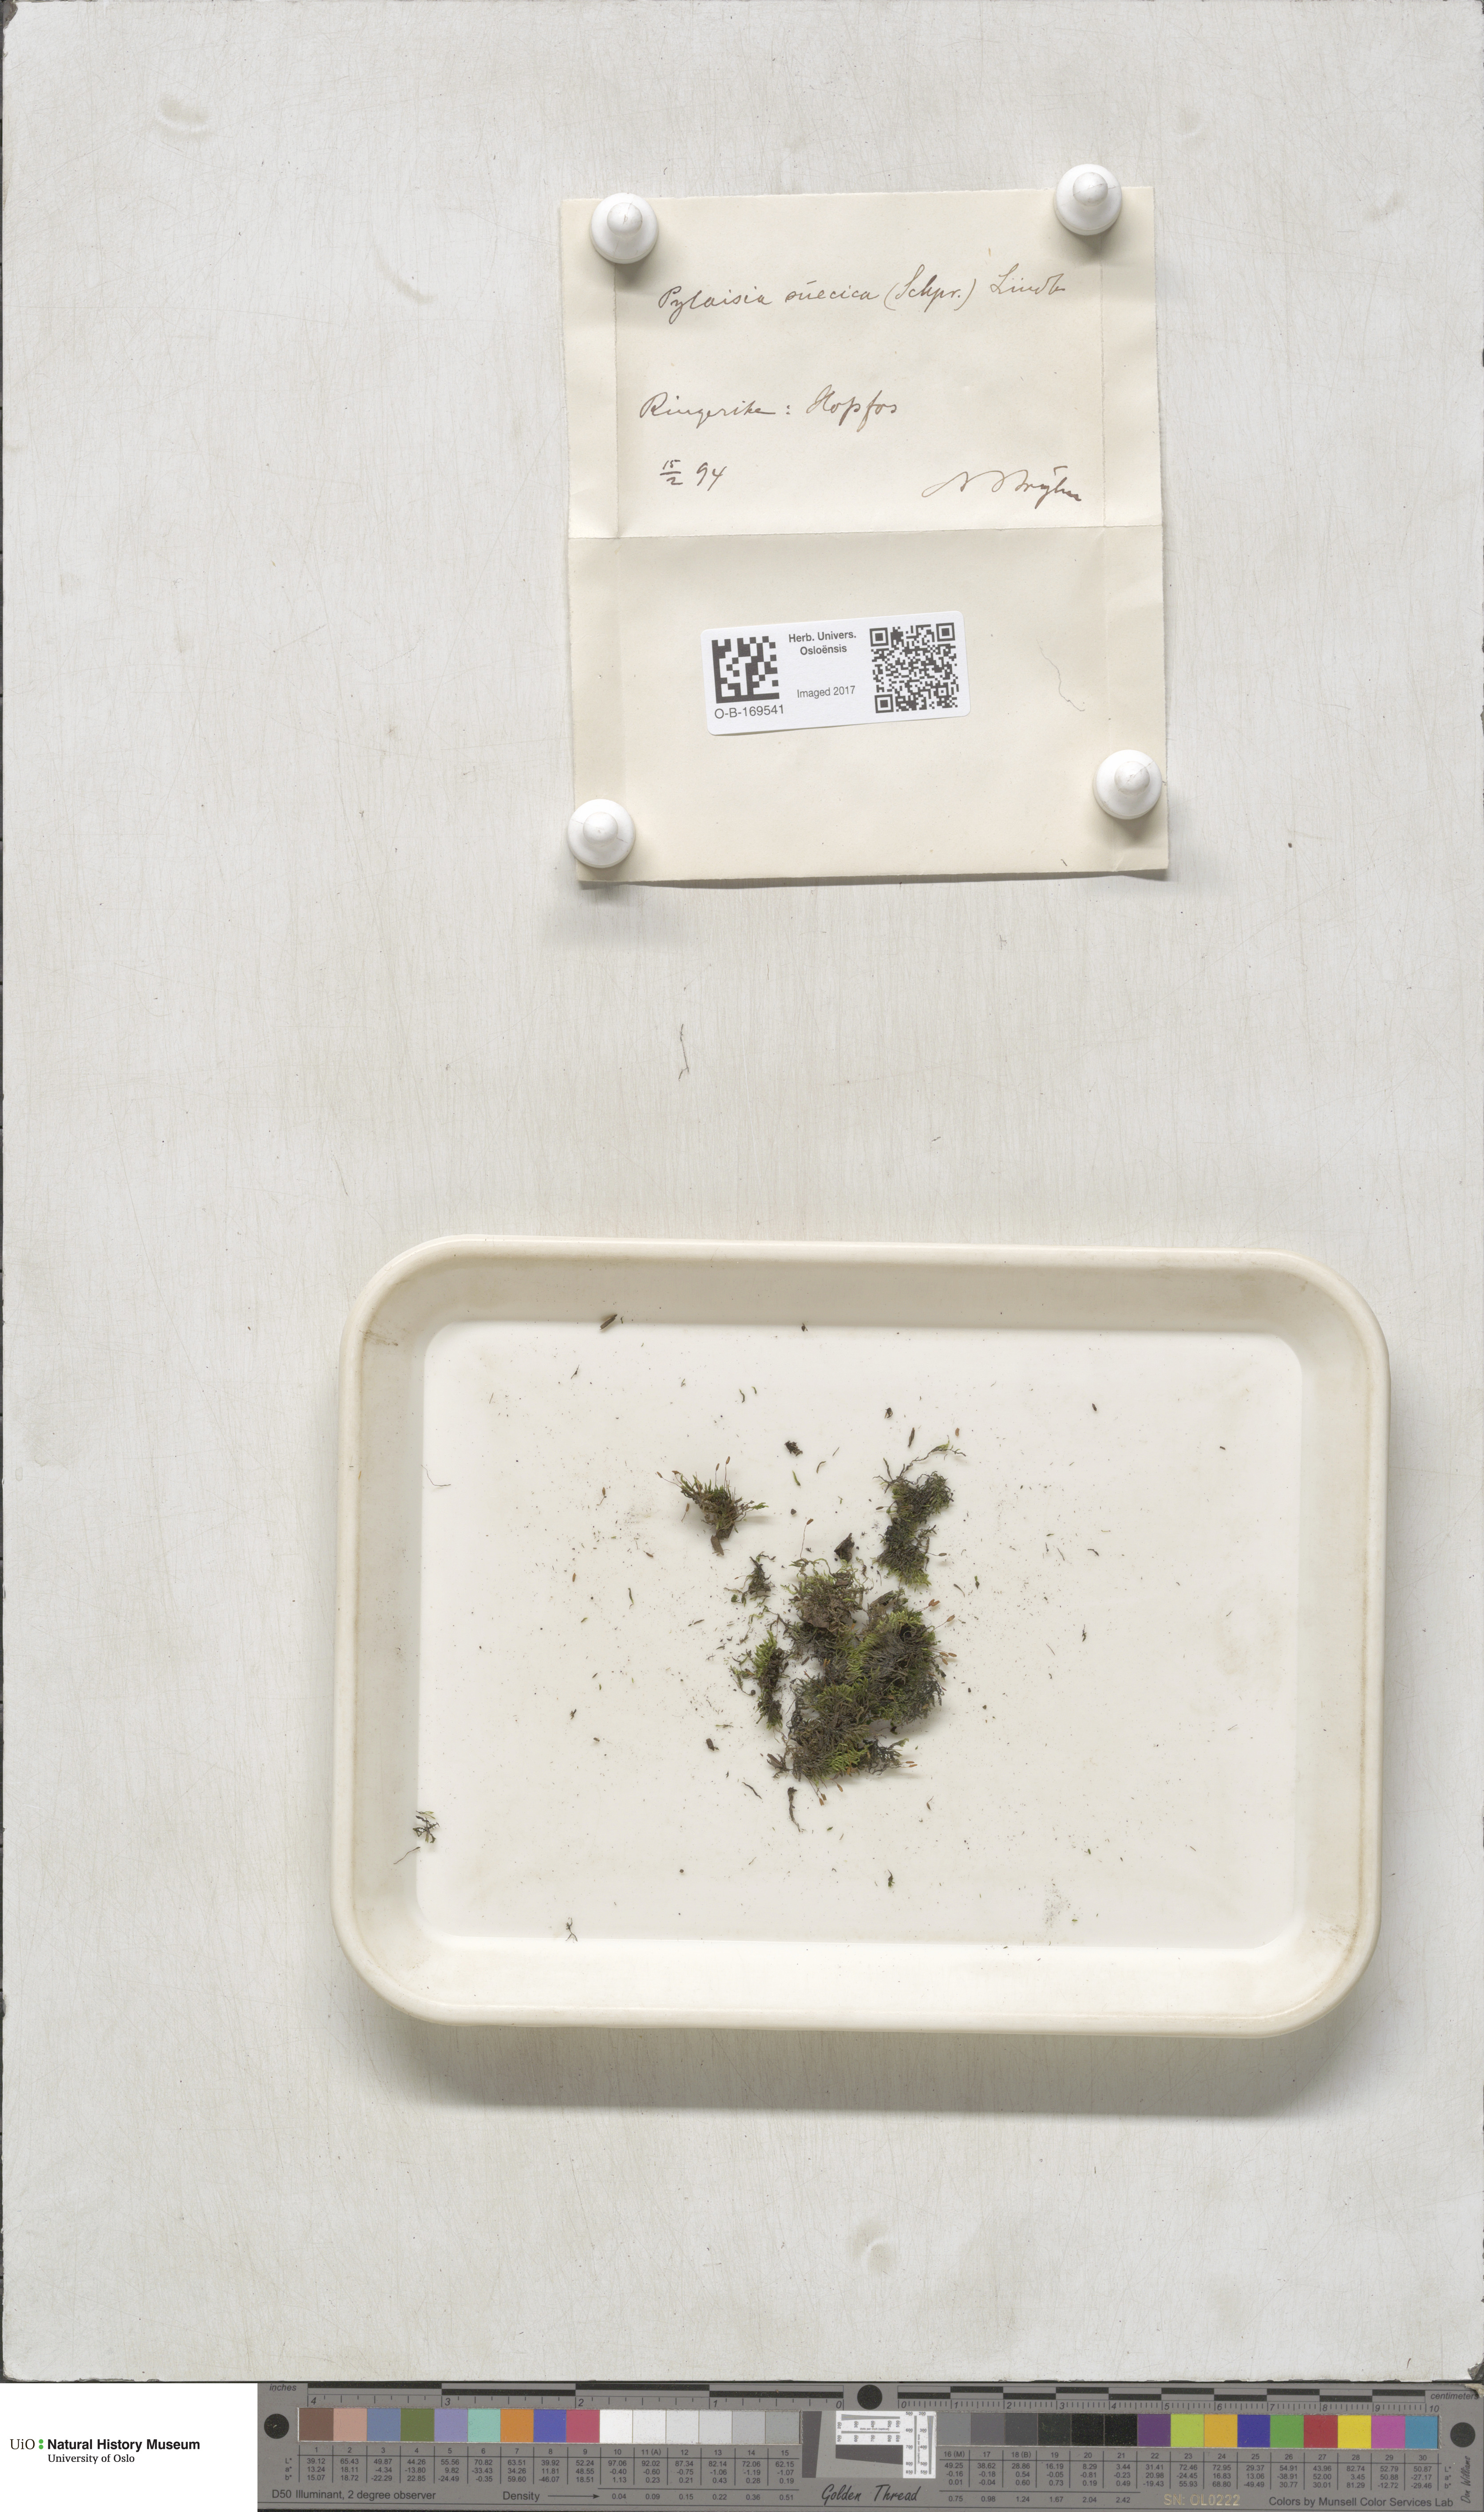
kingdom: Plantae
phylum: Bryophyta
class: Bryopsida
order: Hypnales
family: Pylaisiaceae
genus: Pylaisia
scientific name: Pylaisia polyantha
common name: Many-flowered leskea
